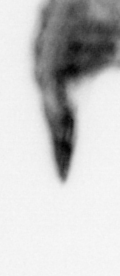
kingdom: Animalia
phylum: Arthropoda
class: Copepoda
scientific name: Copepoda
